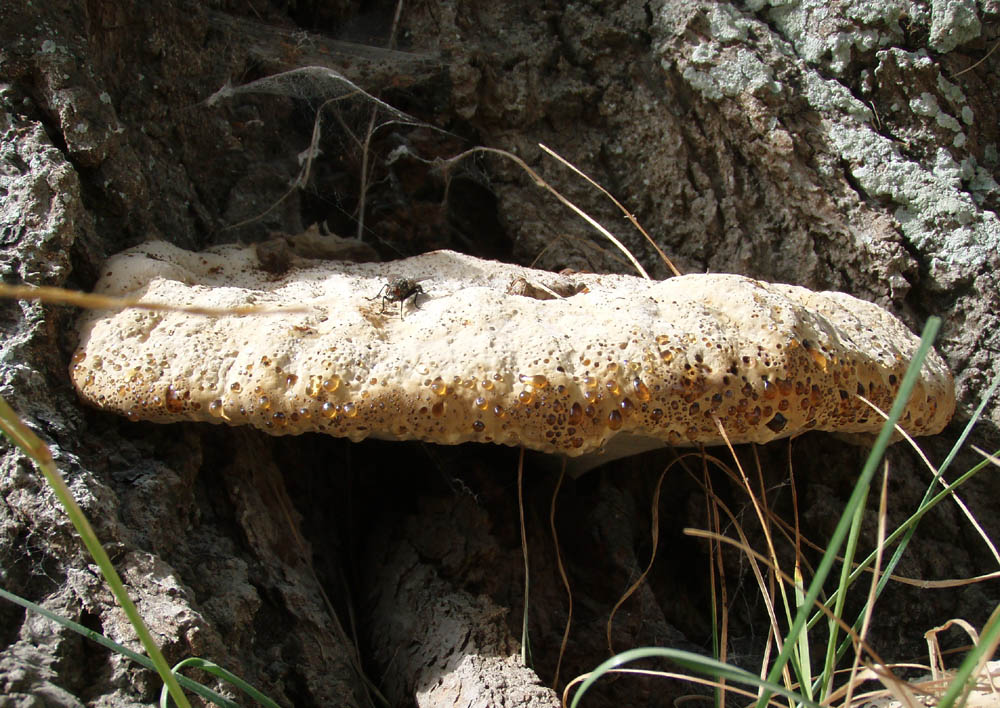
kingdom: Fungi
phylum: Basidiomycota
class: Agaricomycetes
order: Hymenochaetales
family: Hymenochaetaceae
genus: Pseudoinonotus
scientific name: Pseudoinonotus dryadeus
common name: ege-spejlporesvamp
